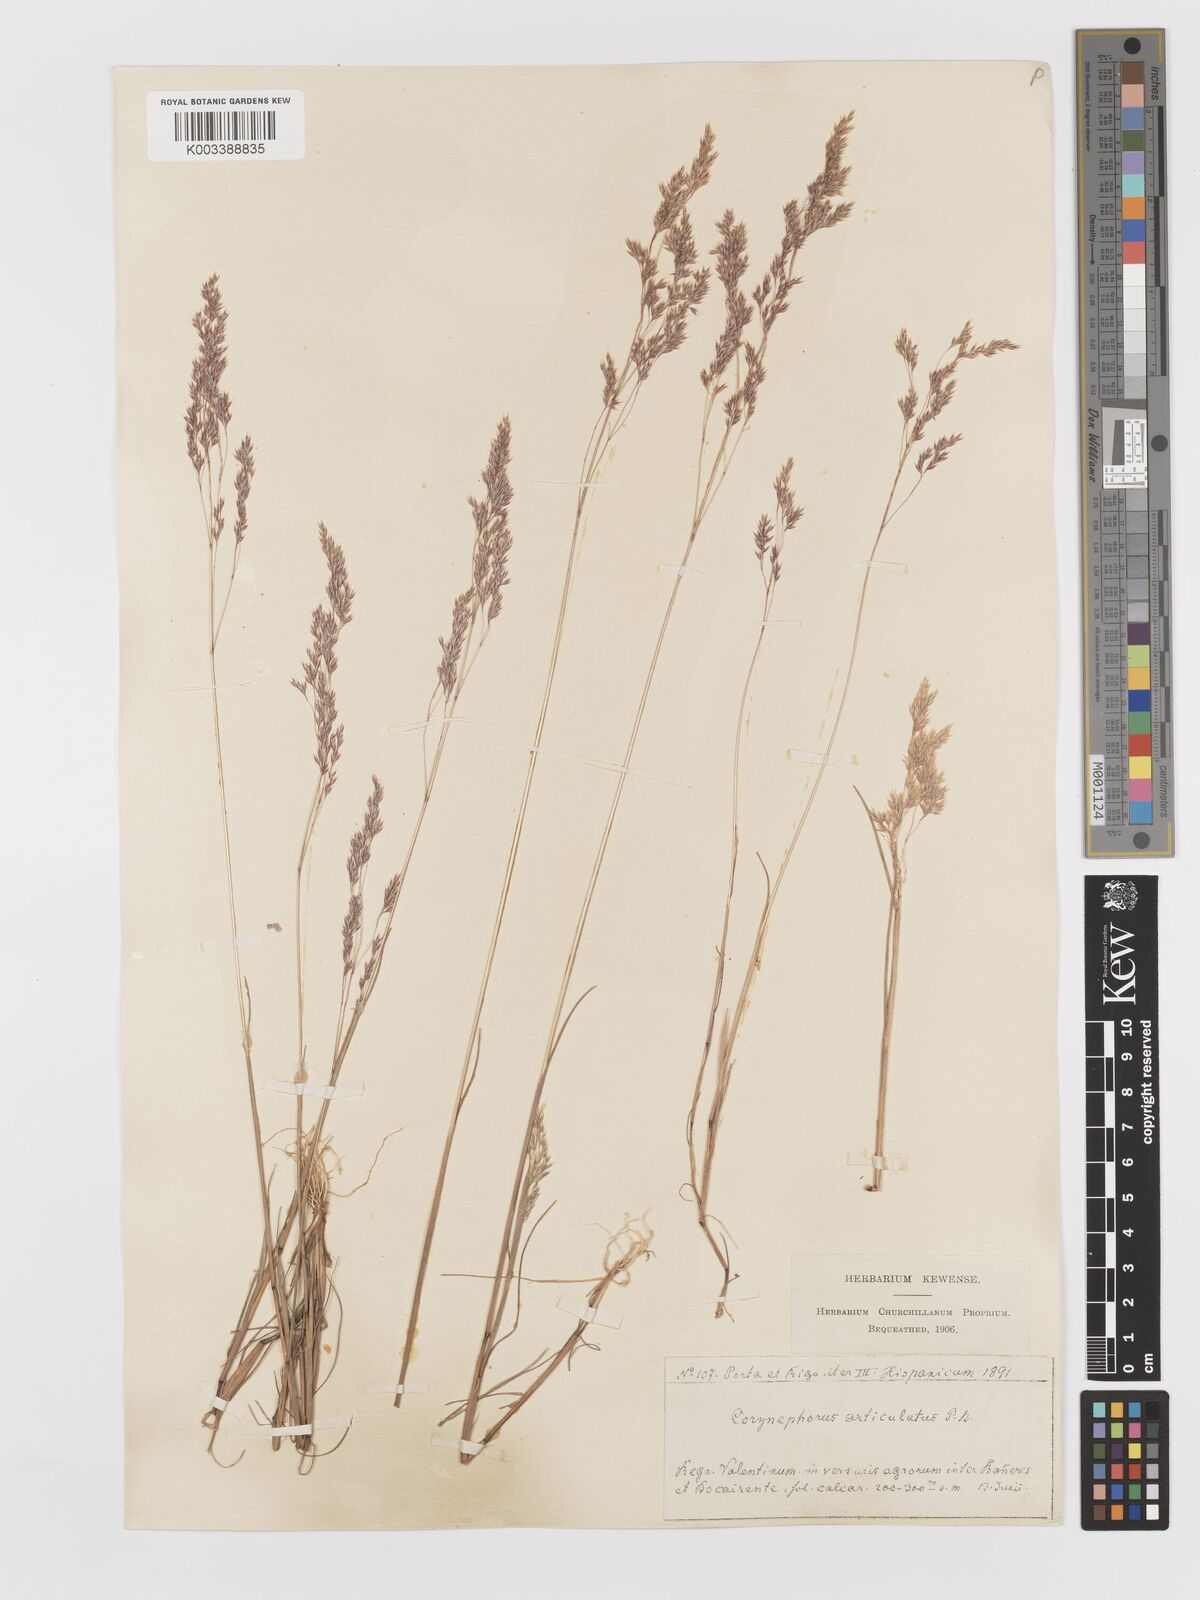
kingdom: Plantae
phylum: Tracheophyta
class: Liliopsida
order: Poales
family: Poaceae
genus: Corynephorus
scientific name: Corynephorus divaricatus
